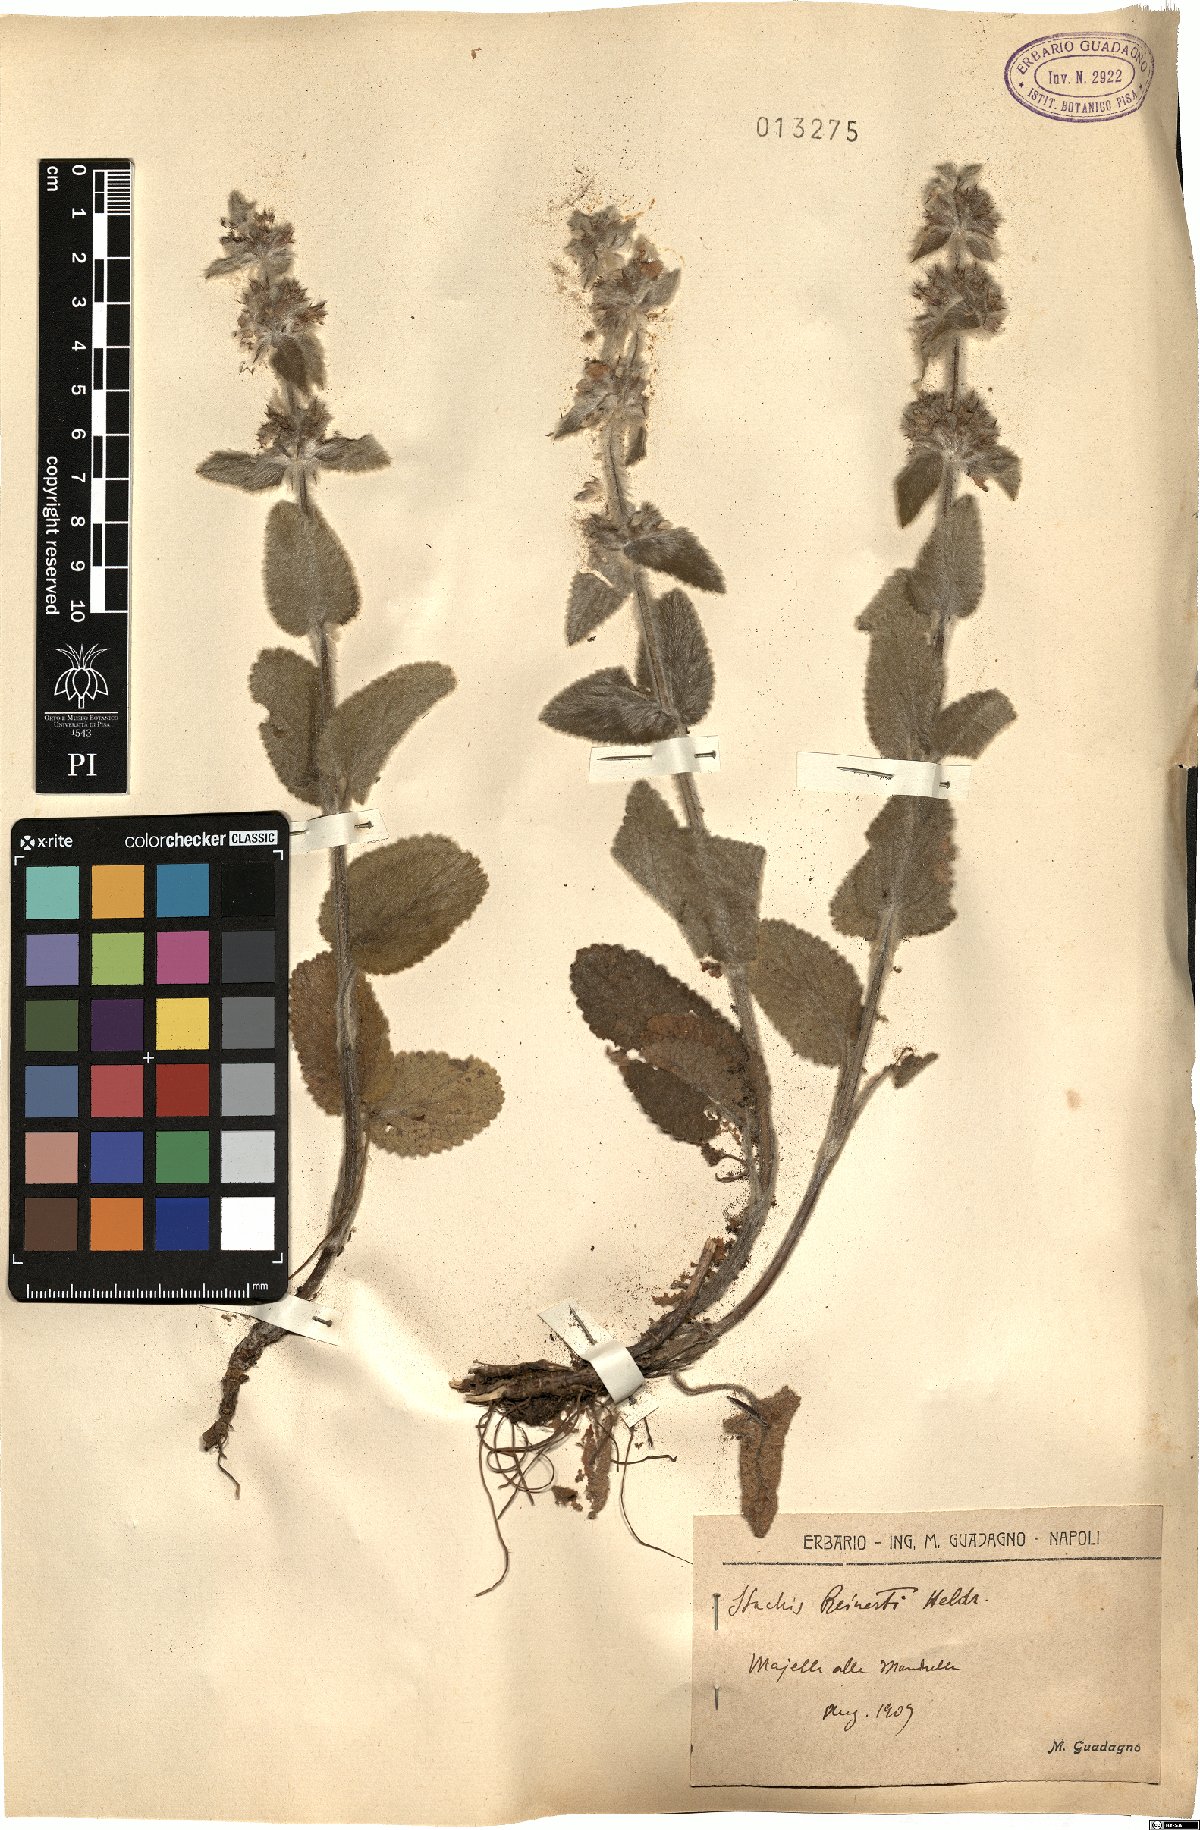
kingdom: Plantae
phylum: Tracheophyta
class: Magnoliopsida
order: Lamiales
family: Lamiaceae
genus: Stachys
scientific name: Stachys tymphaea
